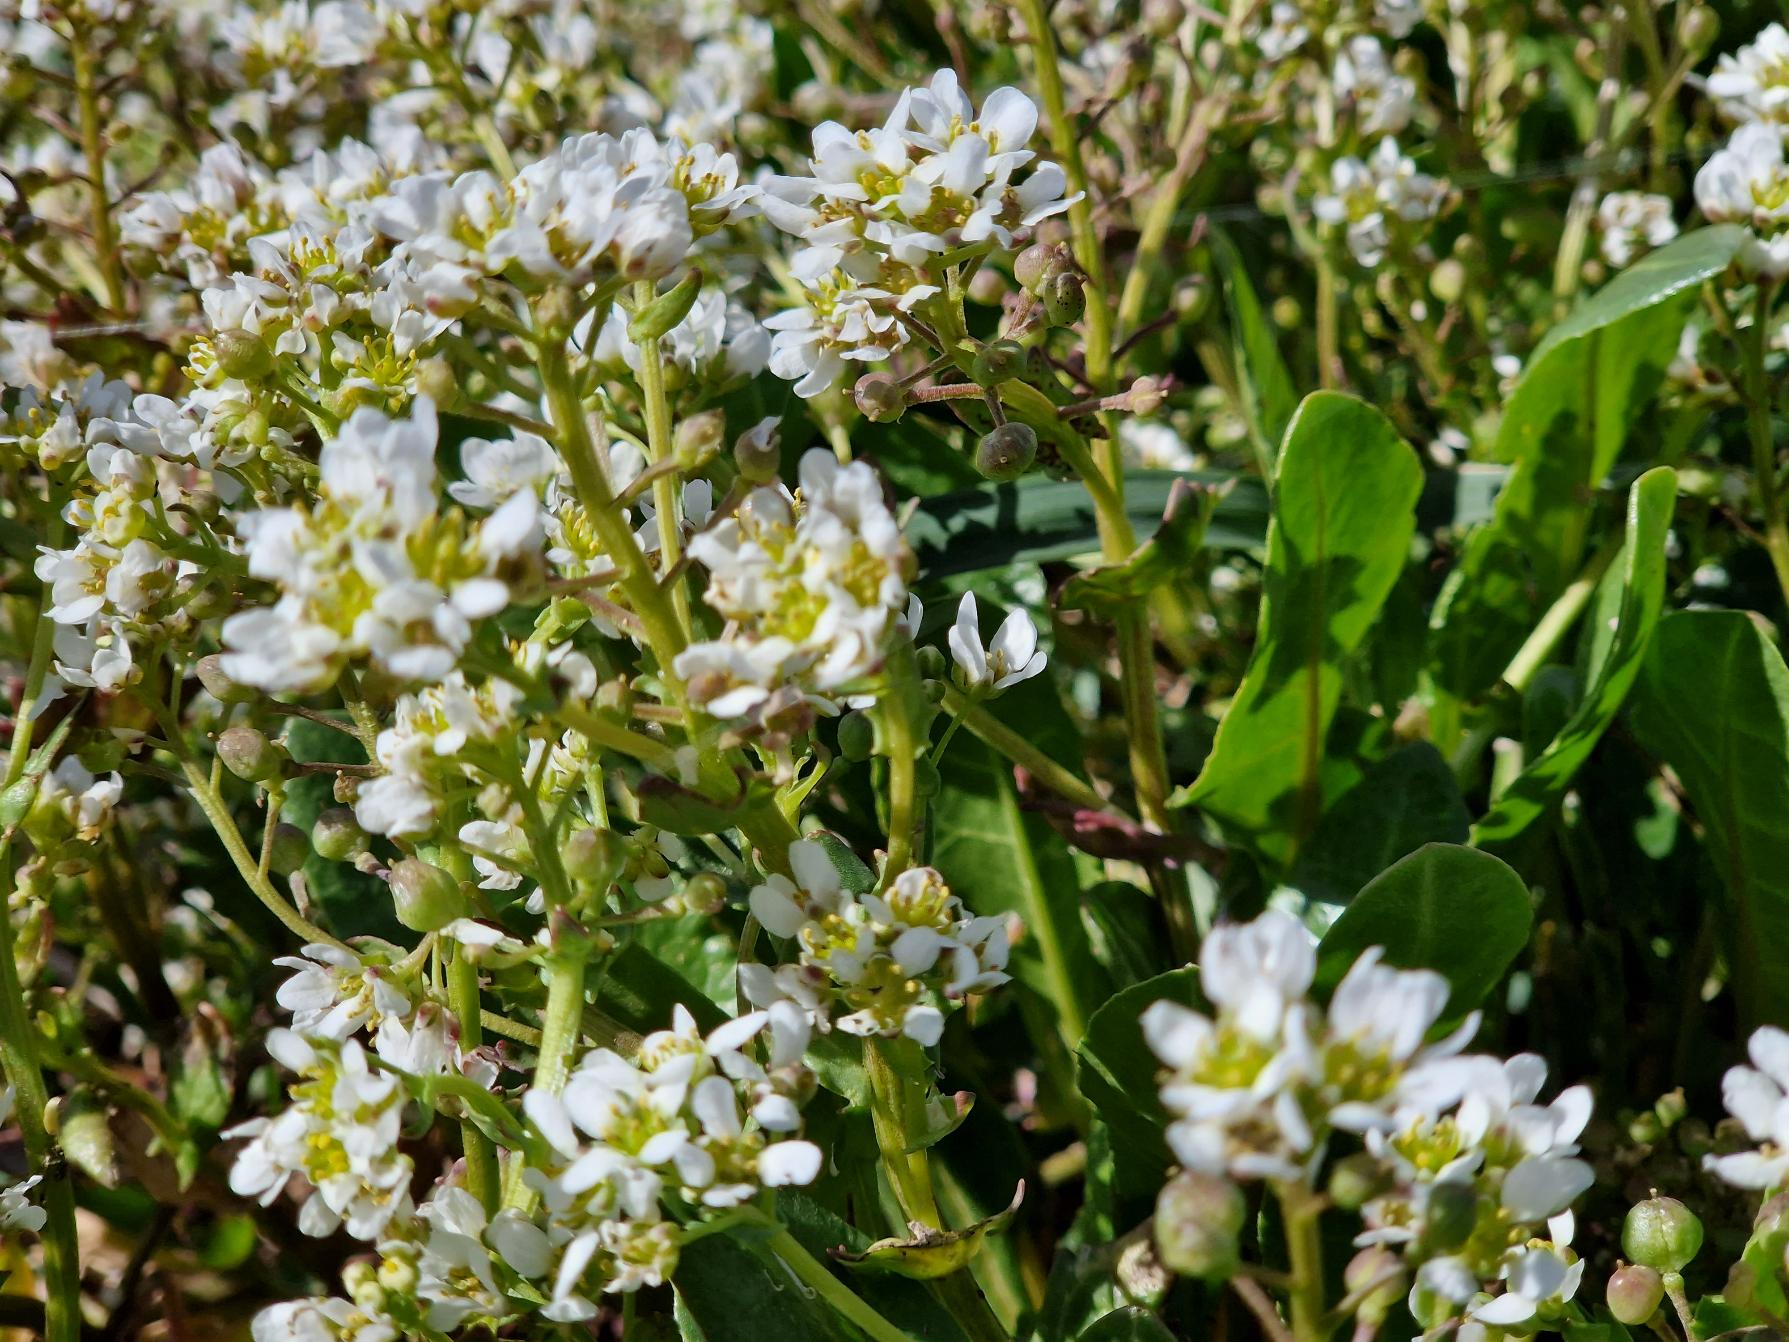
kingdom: Plantae
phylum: Tracheophyta
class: Magnoliopsida
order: Brassicales
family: Brassicaceae
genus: Cochlearia
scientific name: Cochlearia officinalis
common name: Læge-kokleare (underart)
